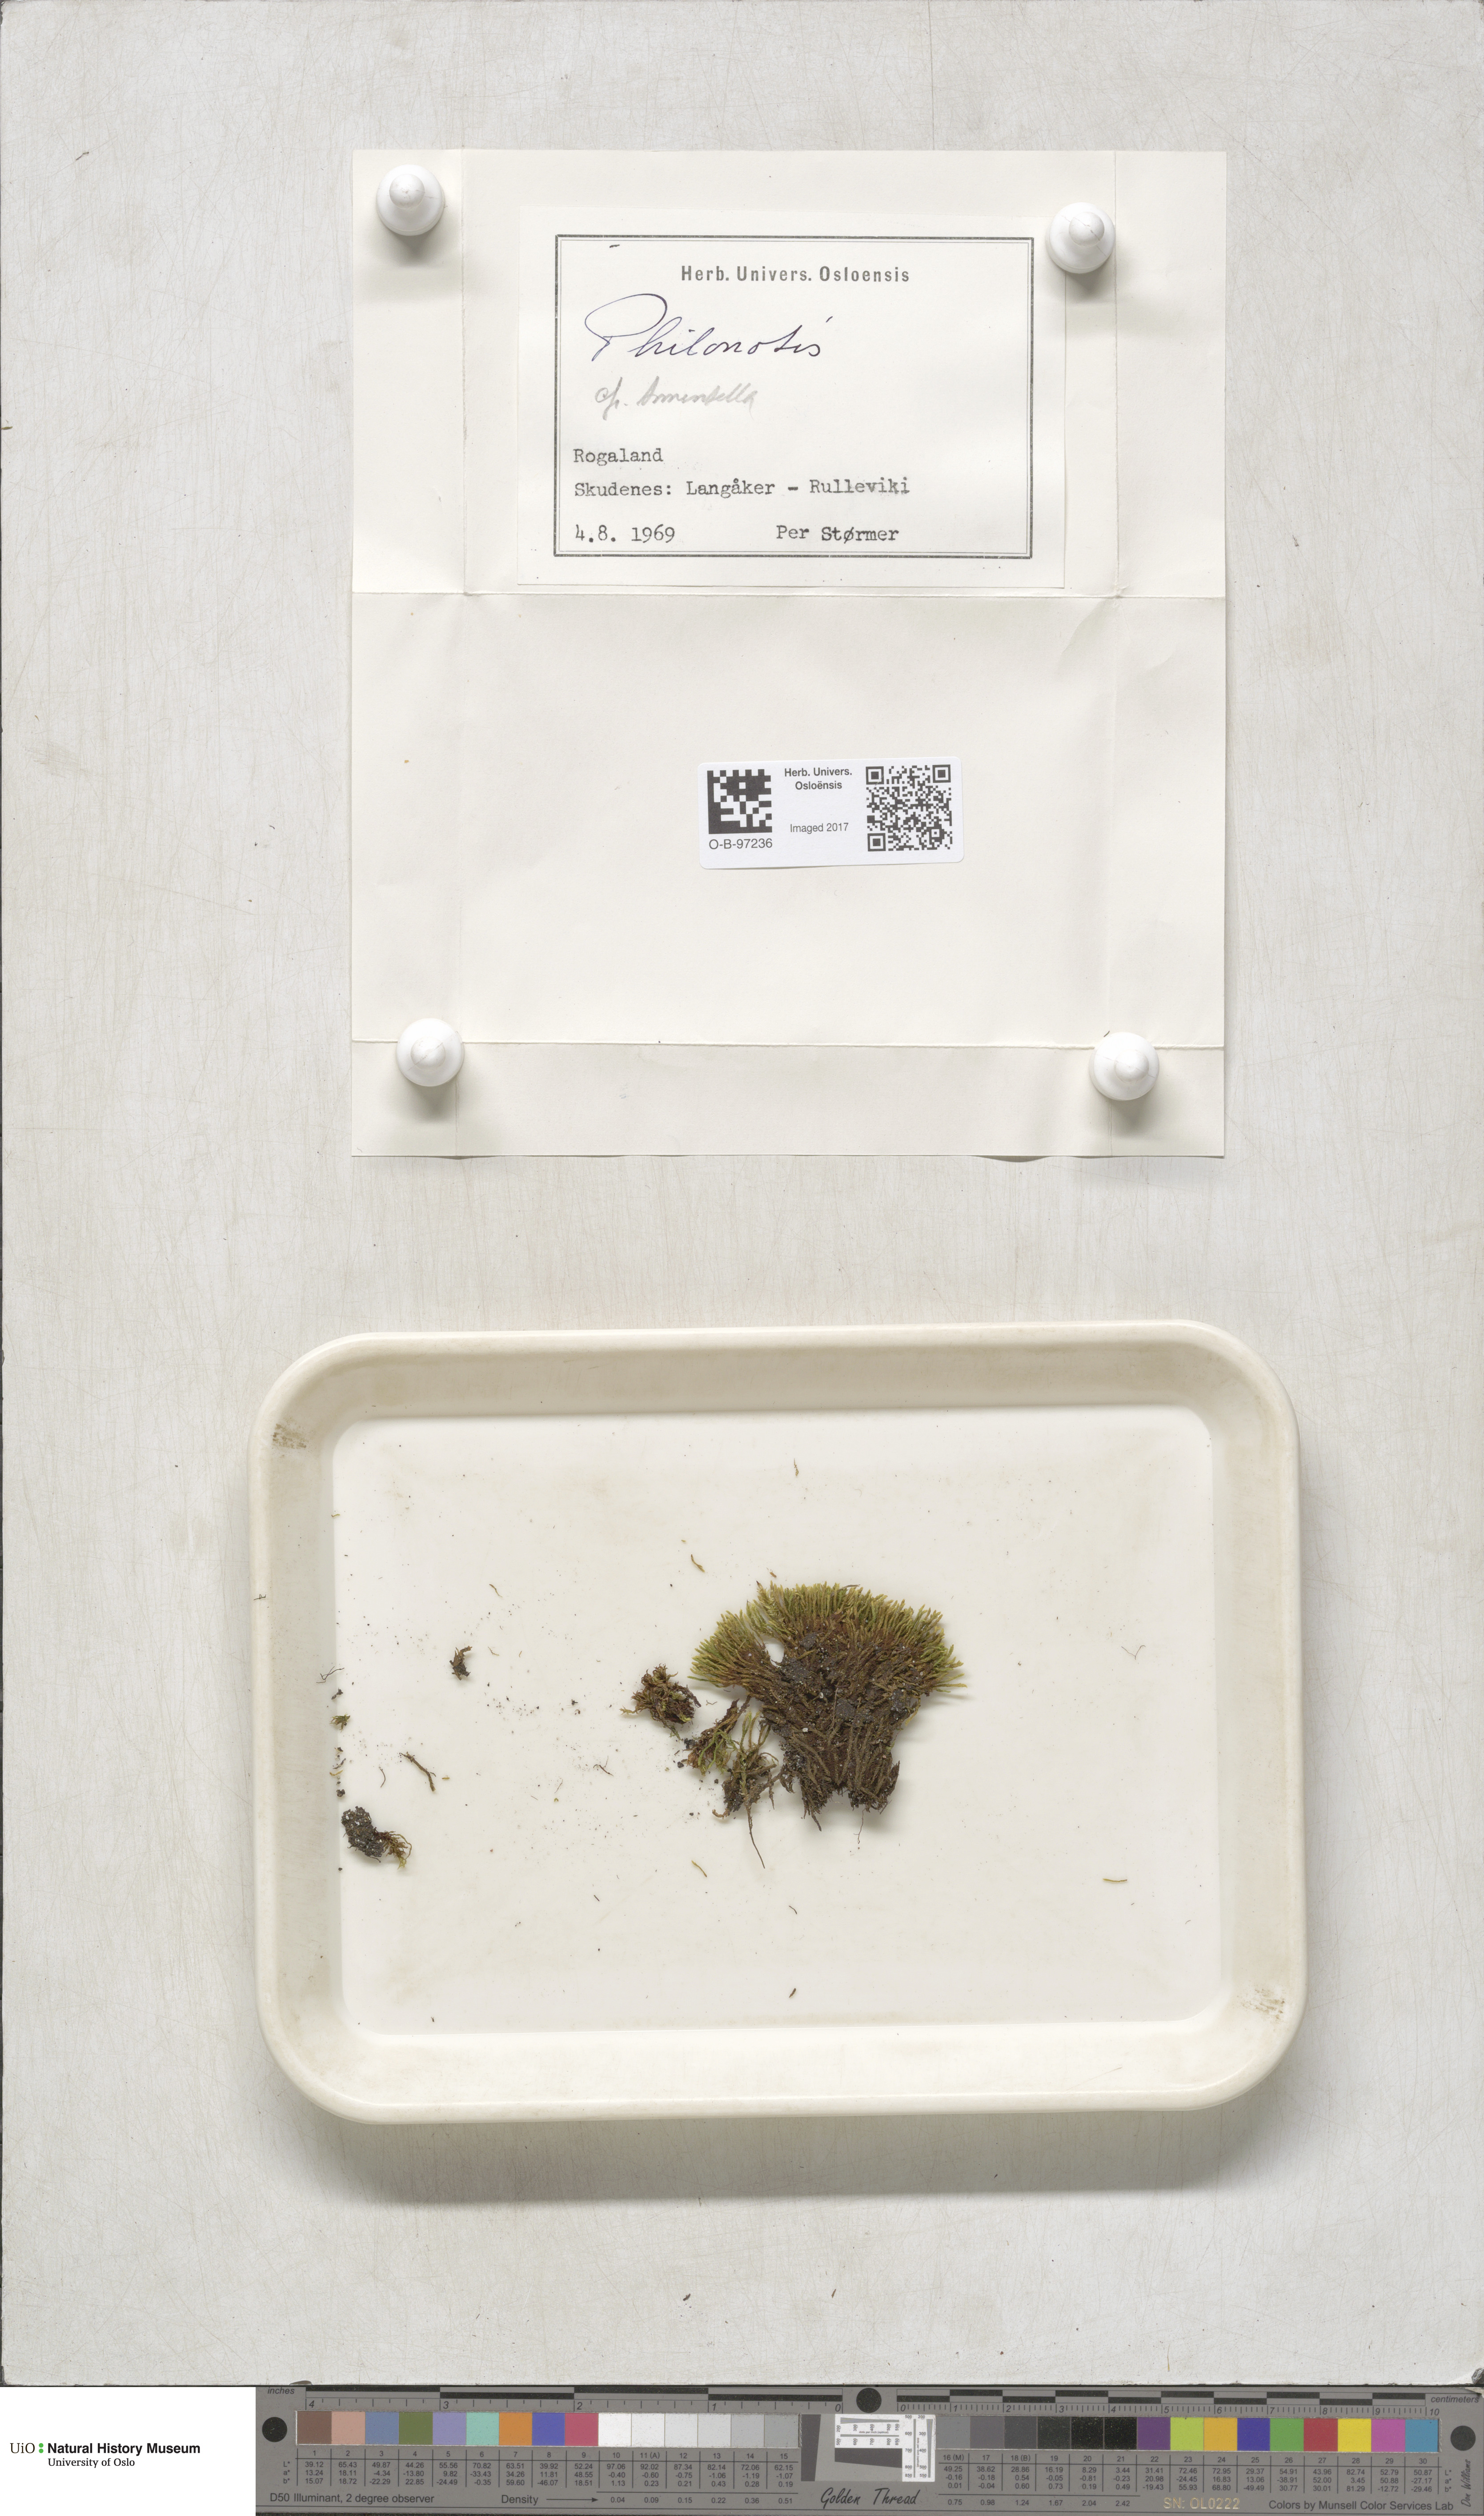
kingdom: Plantae
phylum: Bryophyta
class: Bryopsida
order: Bartramiales
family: Bartramiaceae
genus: Philonotis
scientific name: Philonotis tomentella
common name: Woolly apple moss
